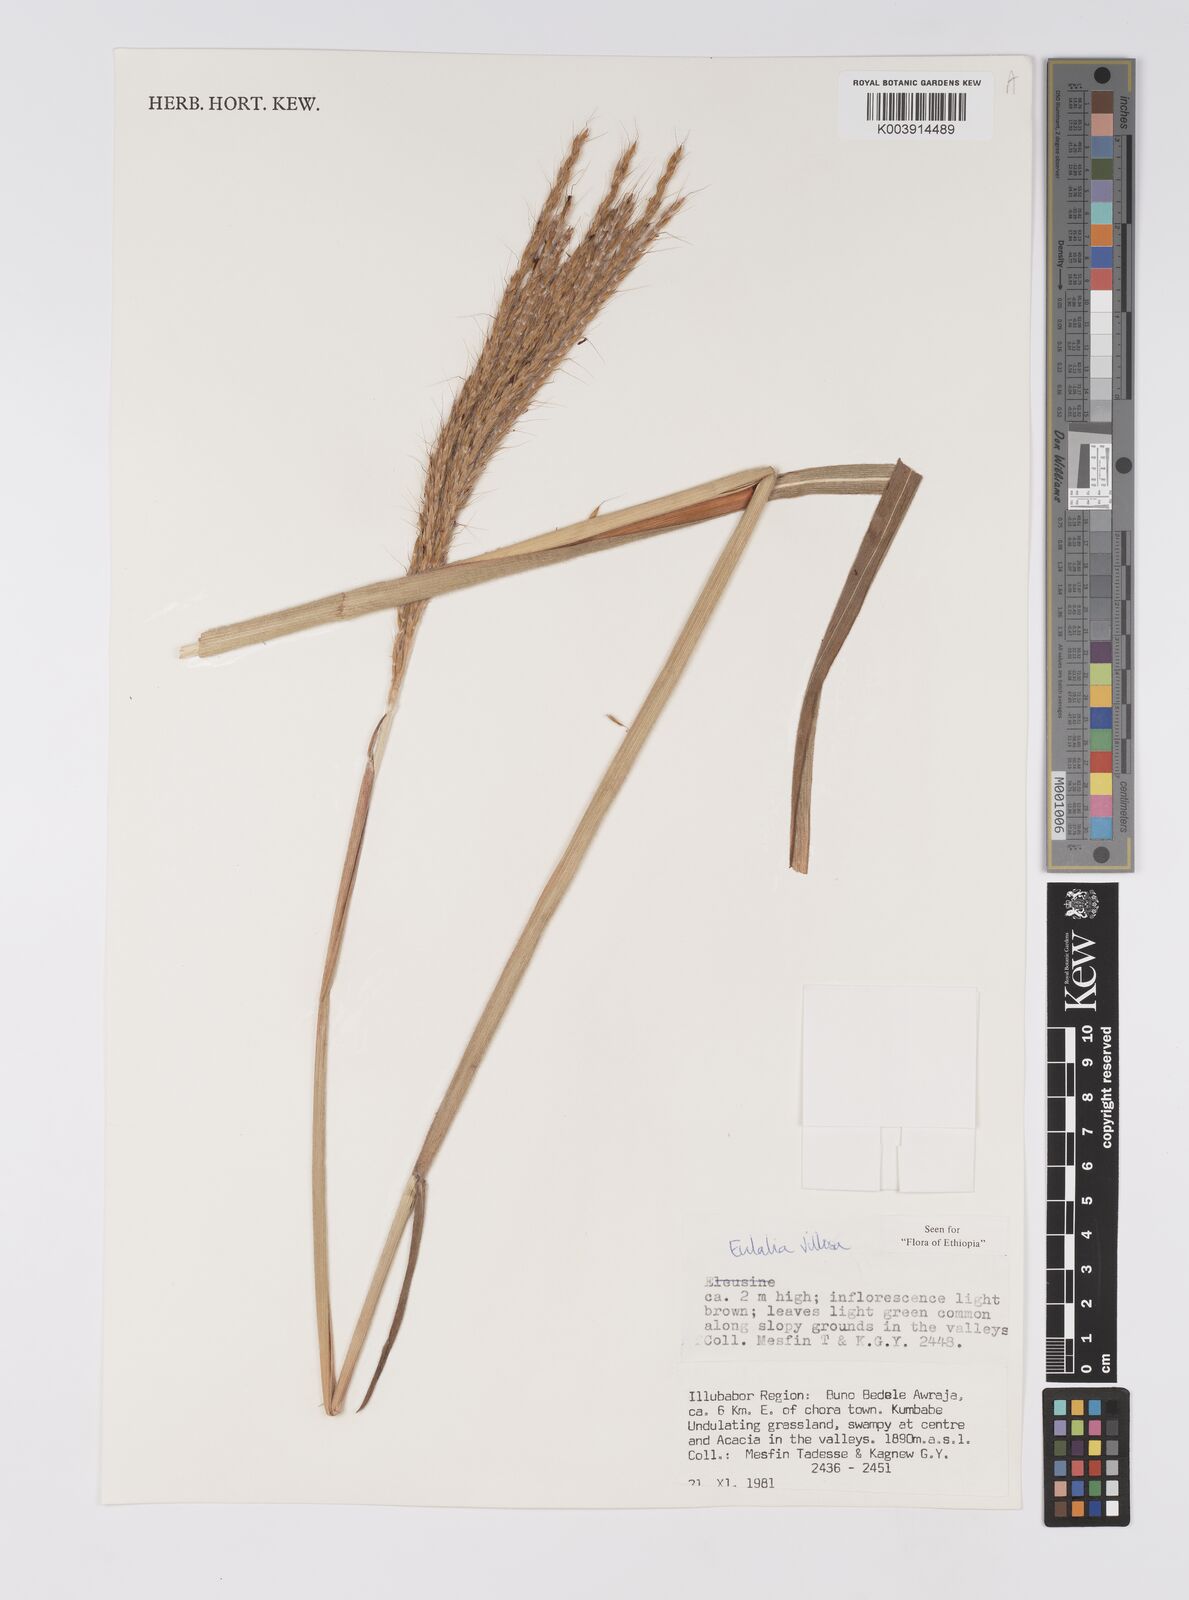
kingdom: Plantae
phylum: Tracheophyta
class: Liliopsida
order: Poales
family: Poaceae
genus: Eulalia
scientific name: Eulalia villosa
